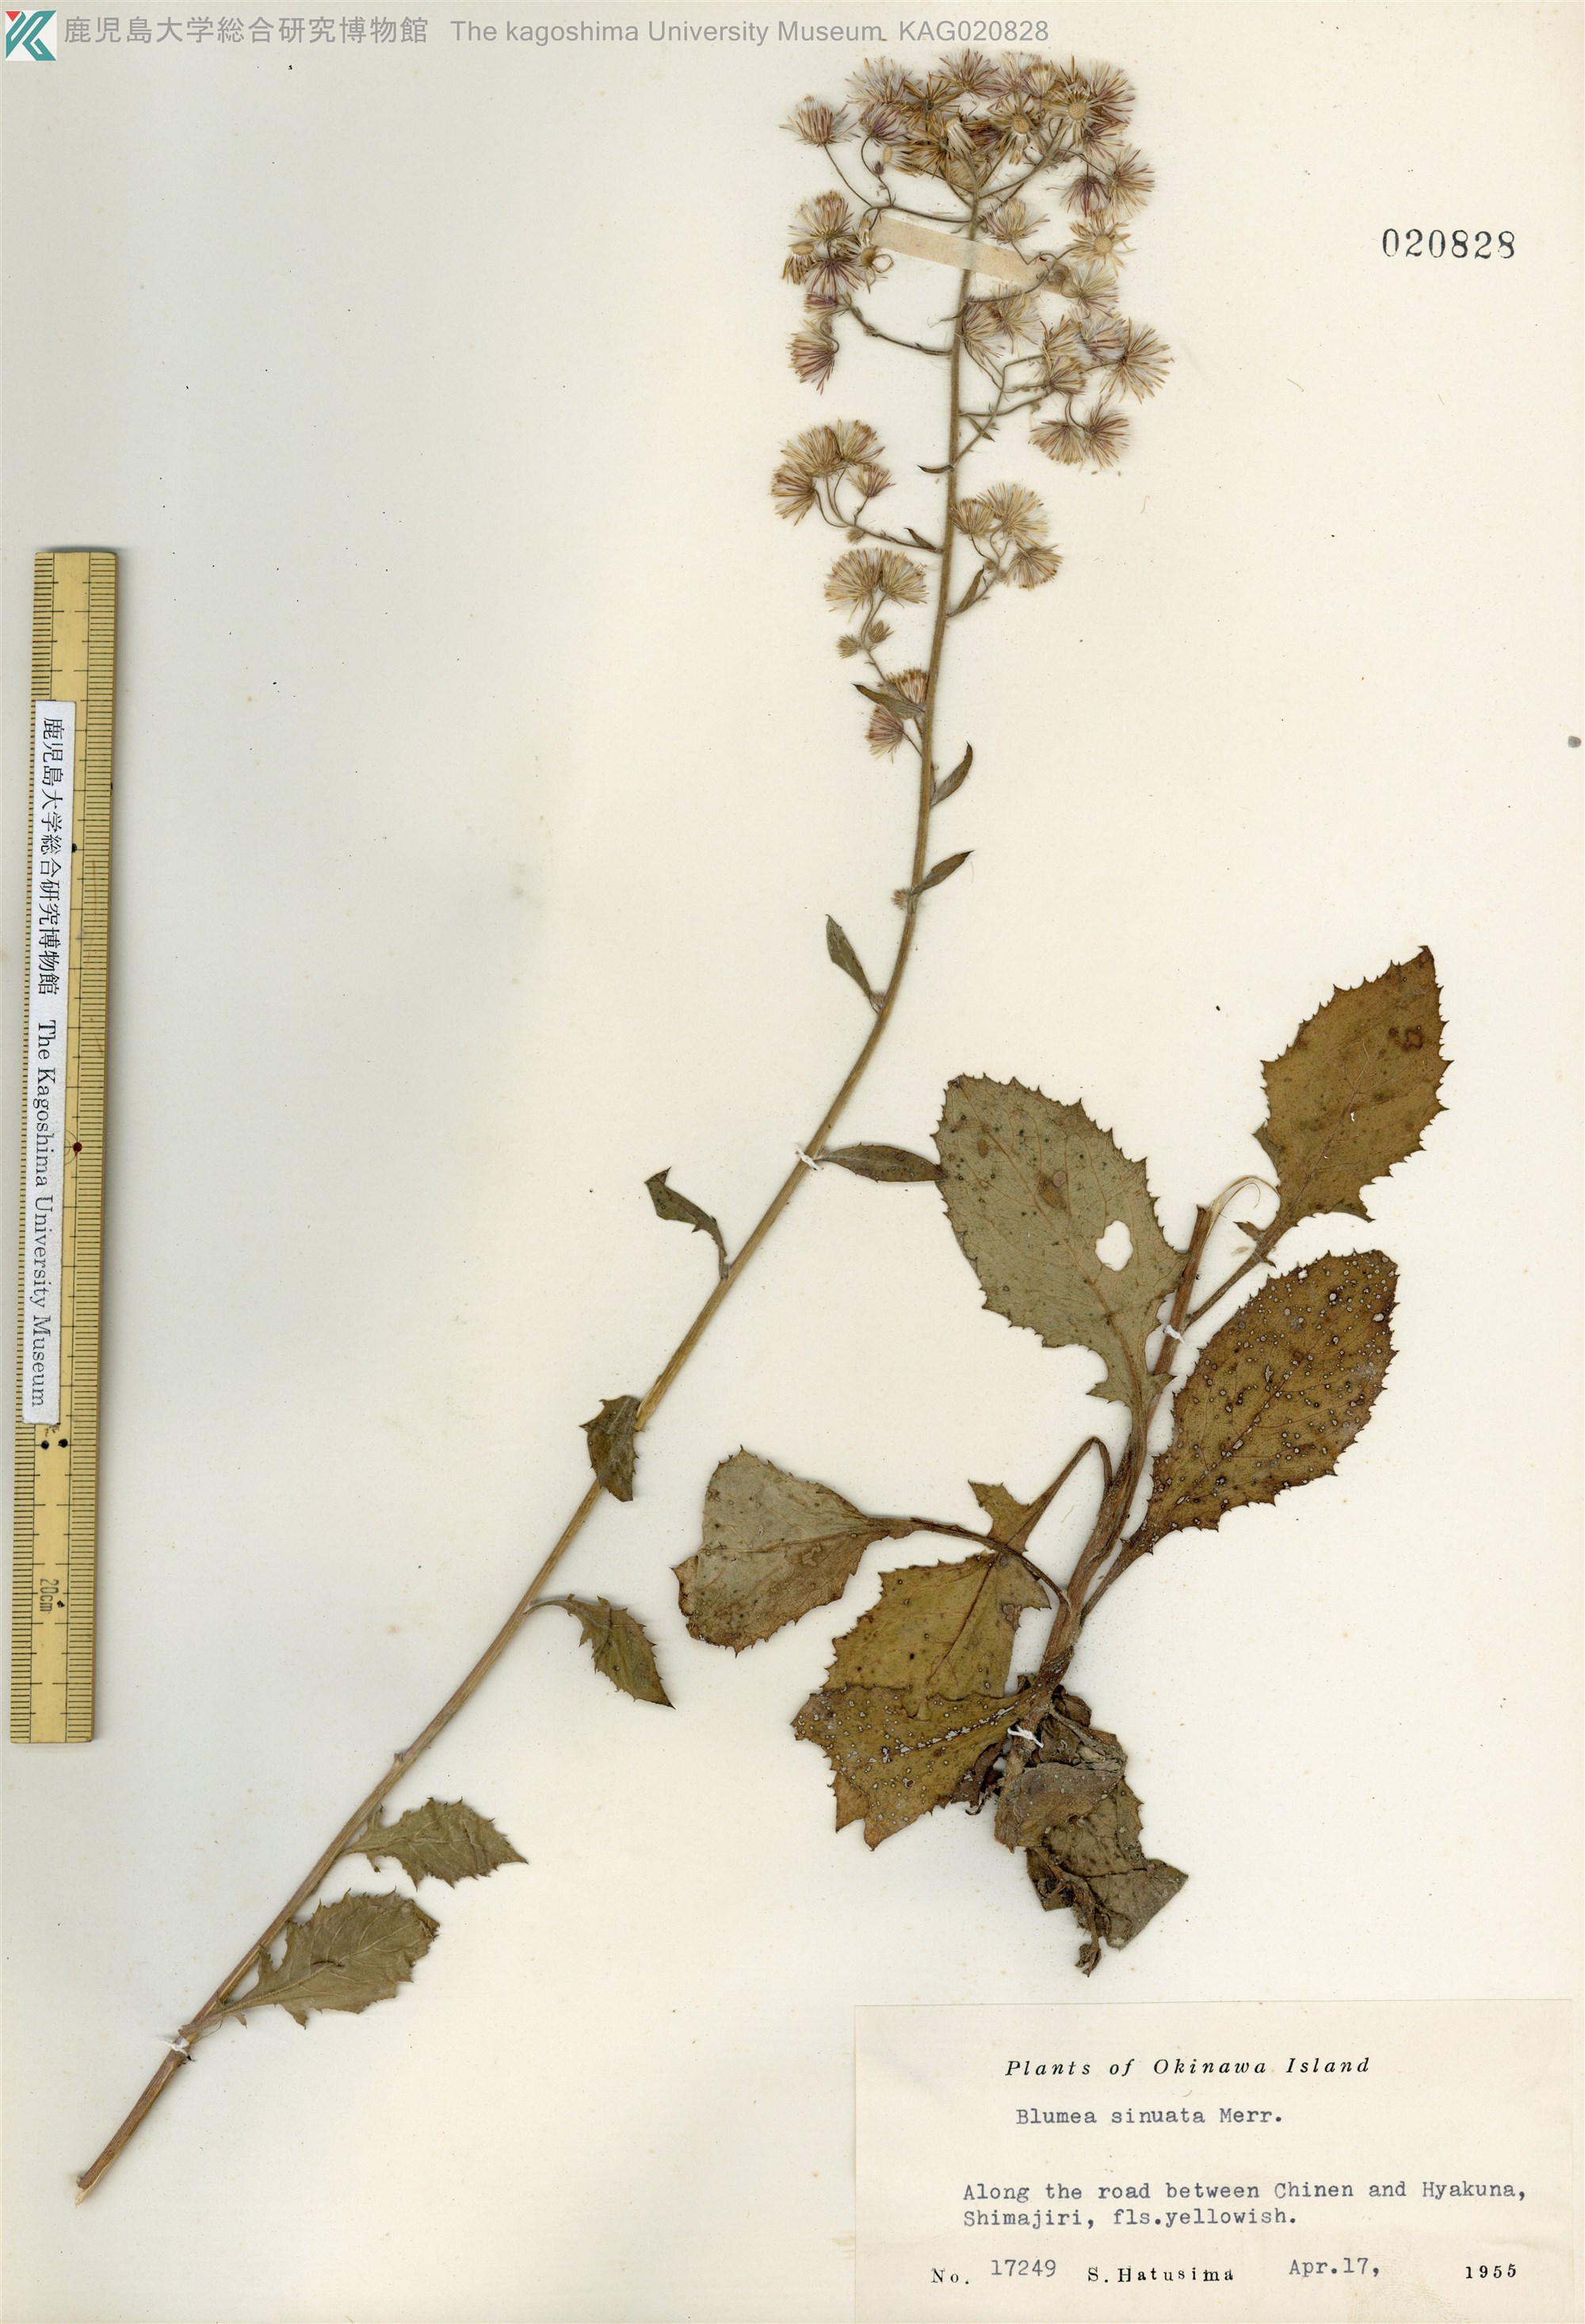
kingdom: Plantae
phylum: Tracheophyta
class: Magnoliopsida
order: Asterales
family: Asteraceae
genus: Blumea
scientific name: Blumea sinuata
